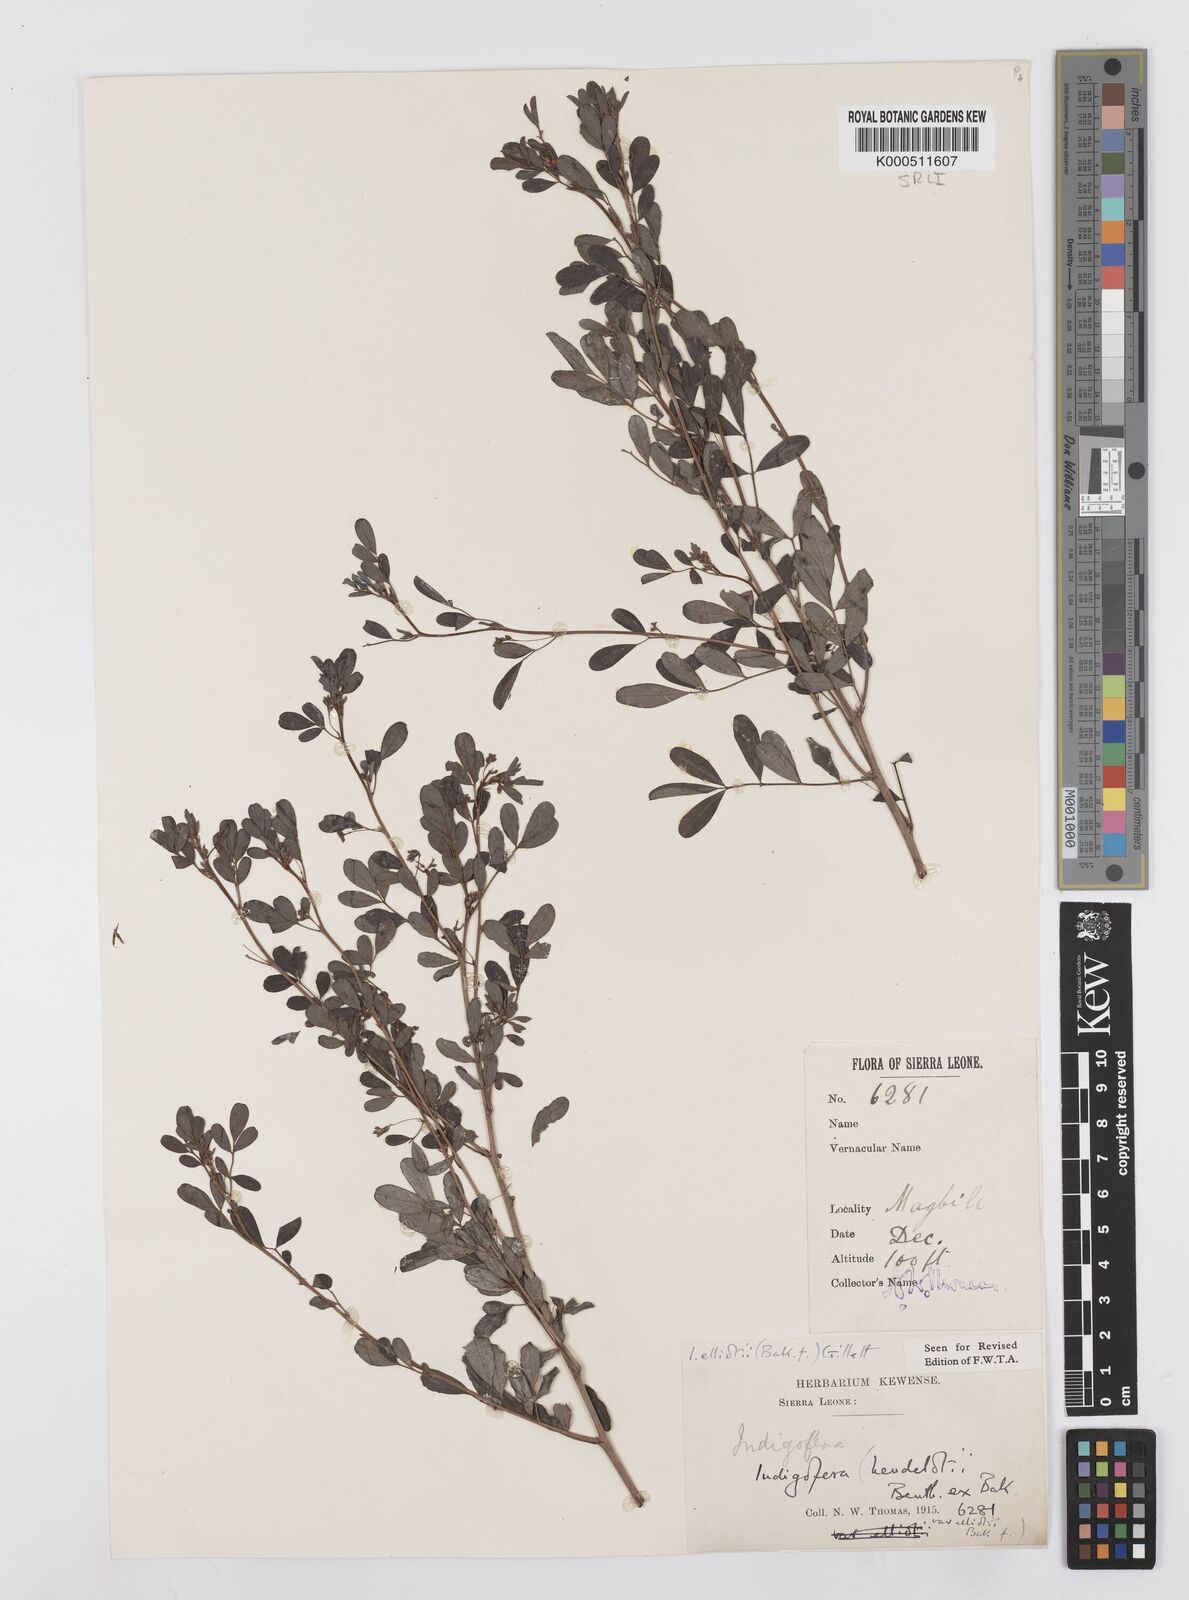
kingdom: Plantae
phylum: Tracheophyta
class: Magnoliopsida
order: Fabales
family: Fabaceae
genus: Indigofera
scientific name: Indigofera elliotii
